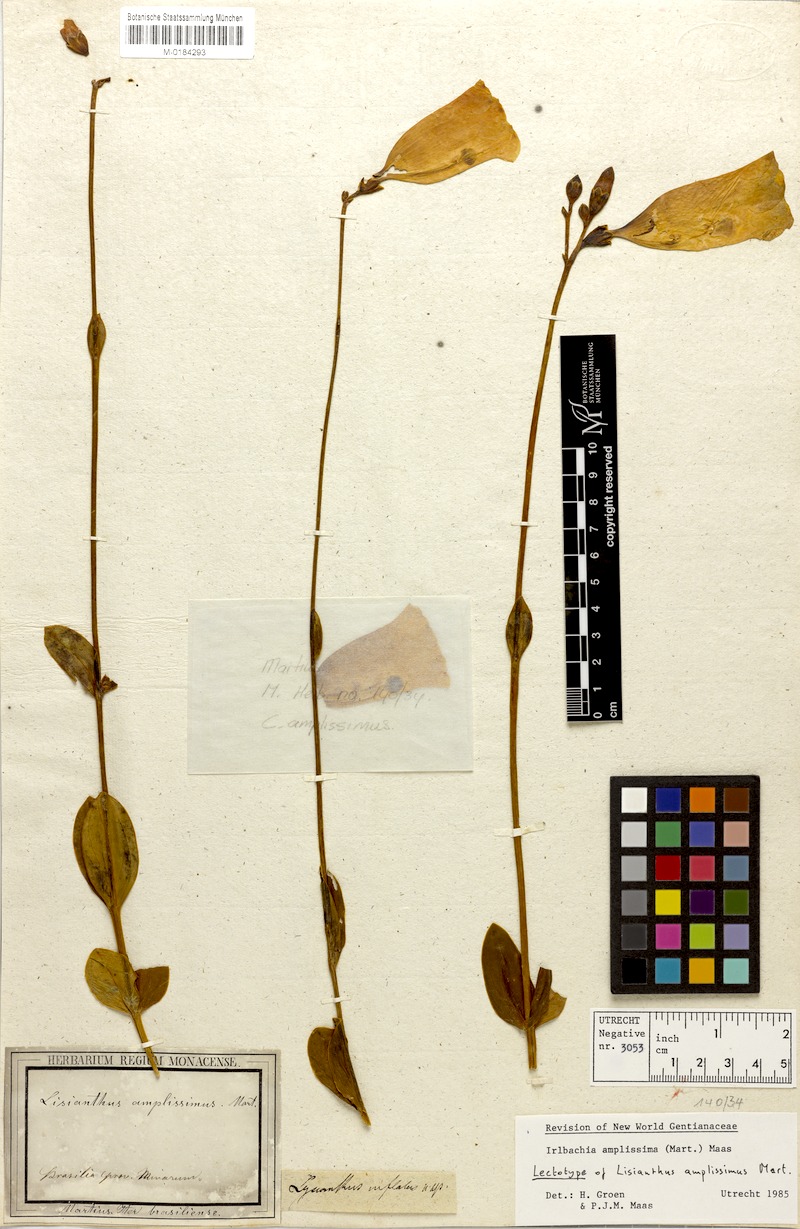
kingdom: Plantae
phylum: Tracheophyta
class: Magnoliopsida
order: Gentianales
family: Gentianaceae
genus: Calolisianthus
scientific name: Calolisianthus amplissimus
